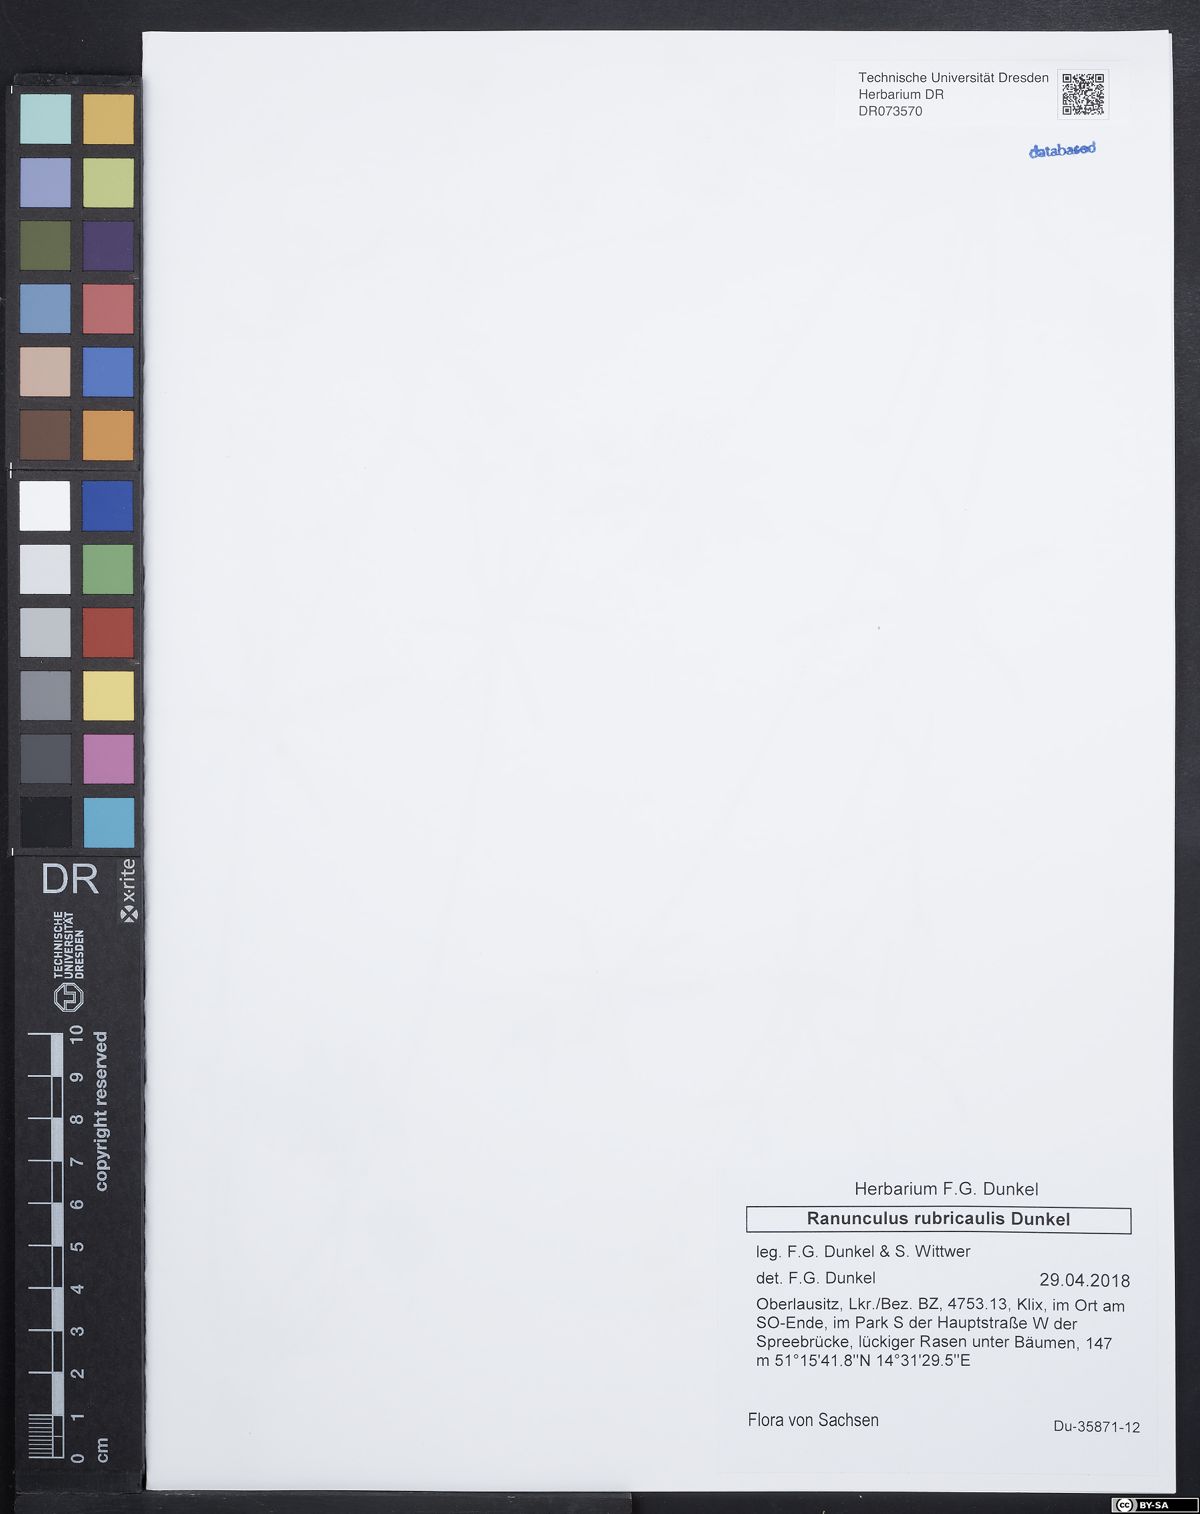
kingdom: Plantae
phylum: Tracheophyta
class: Magnoliopsida
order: Ranunculales
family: Ranunculaceae
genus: Ranunculus
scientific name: Ranunculus rubricaulis
